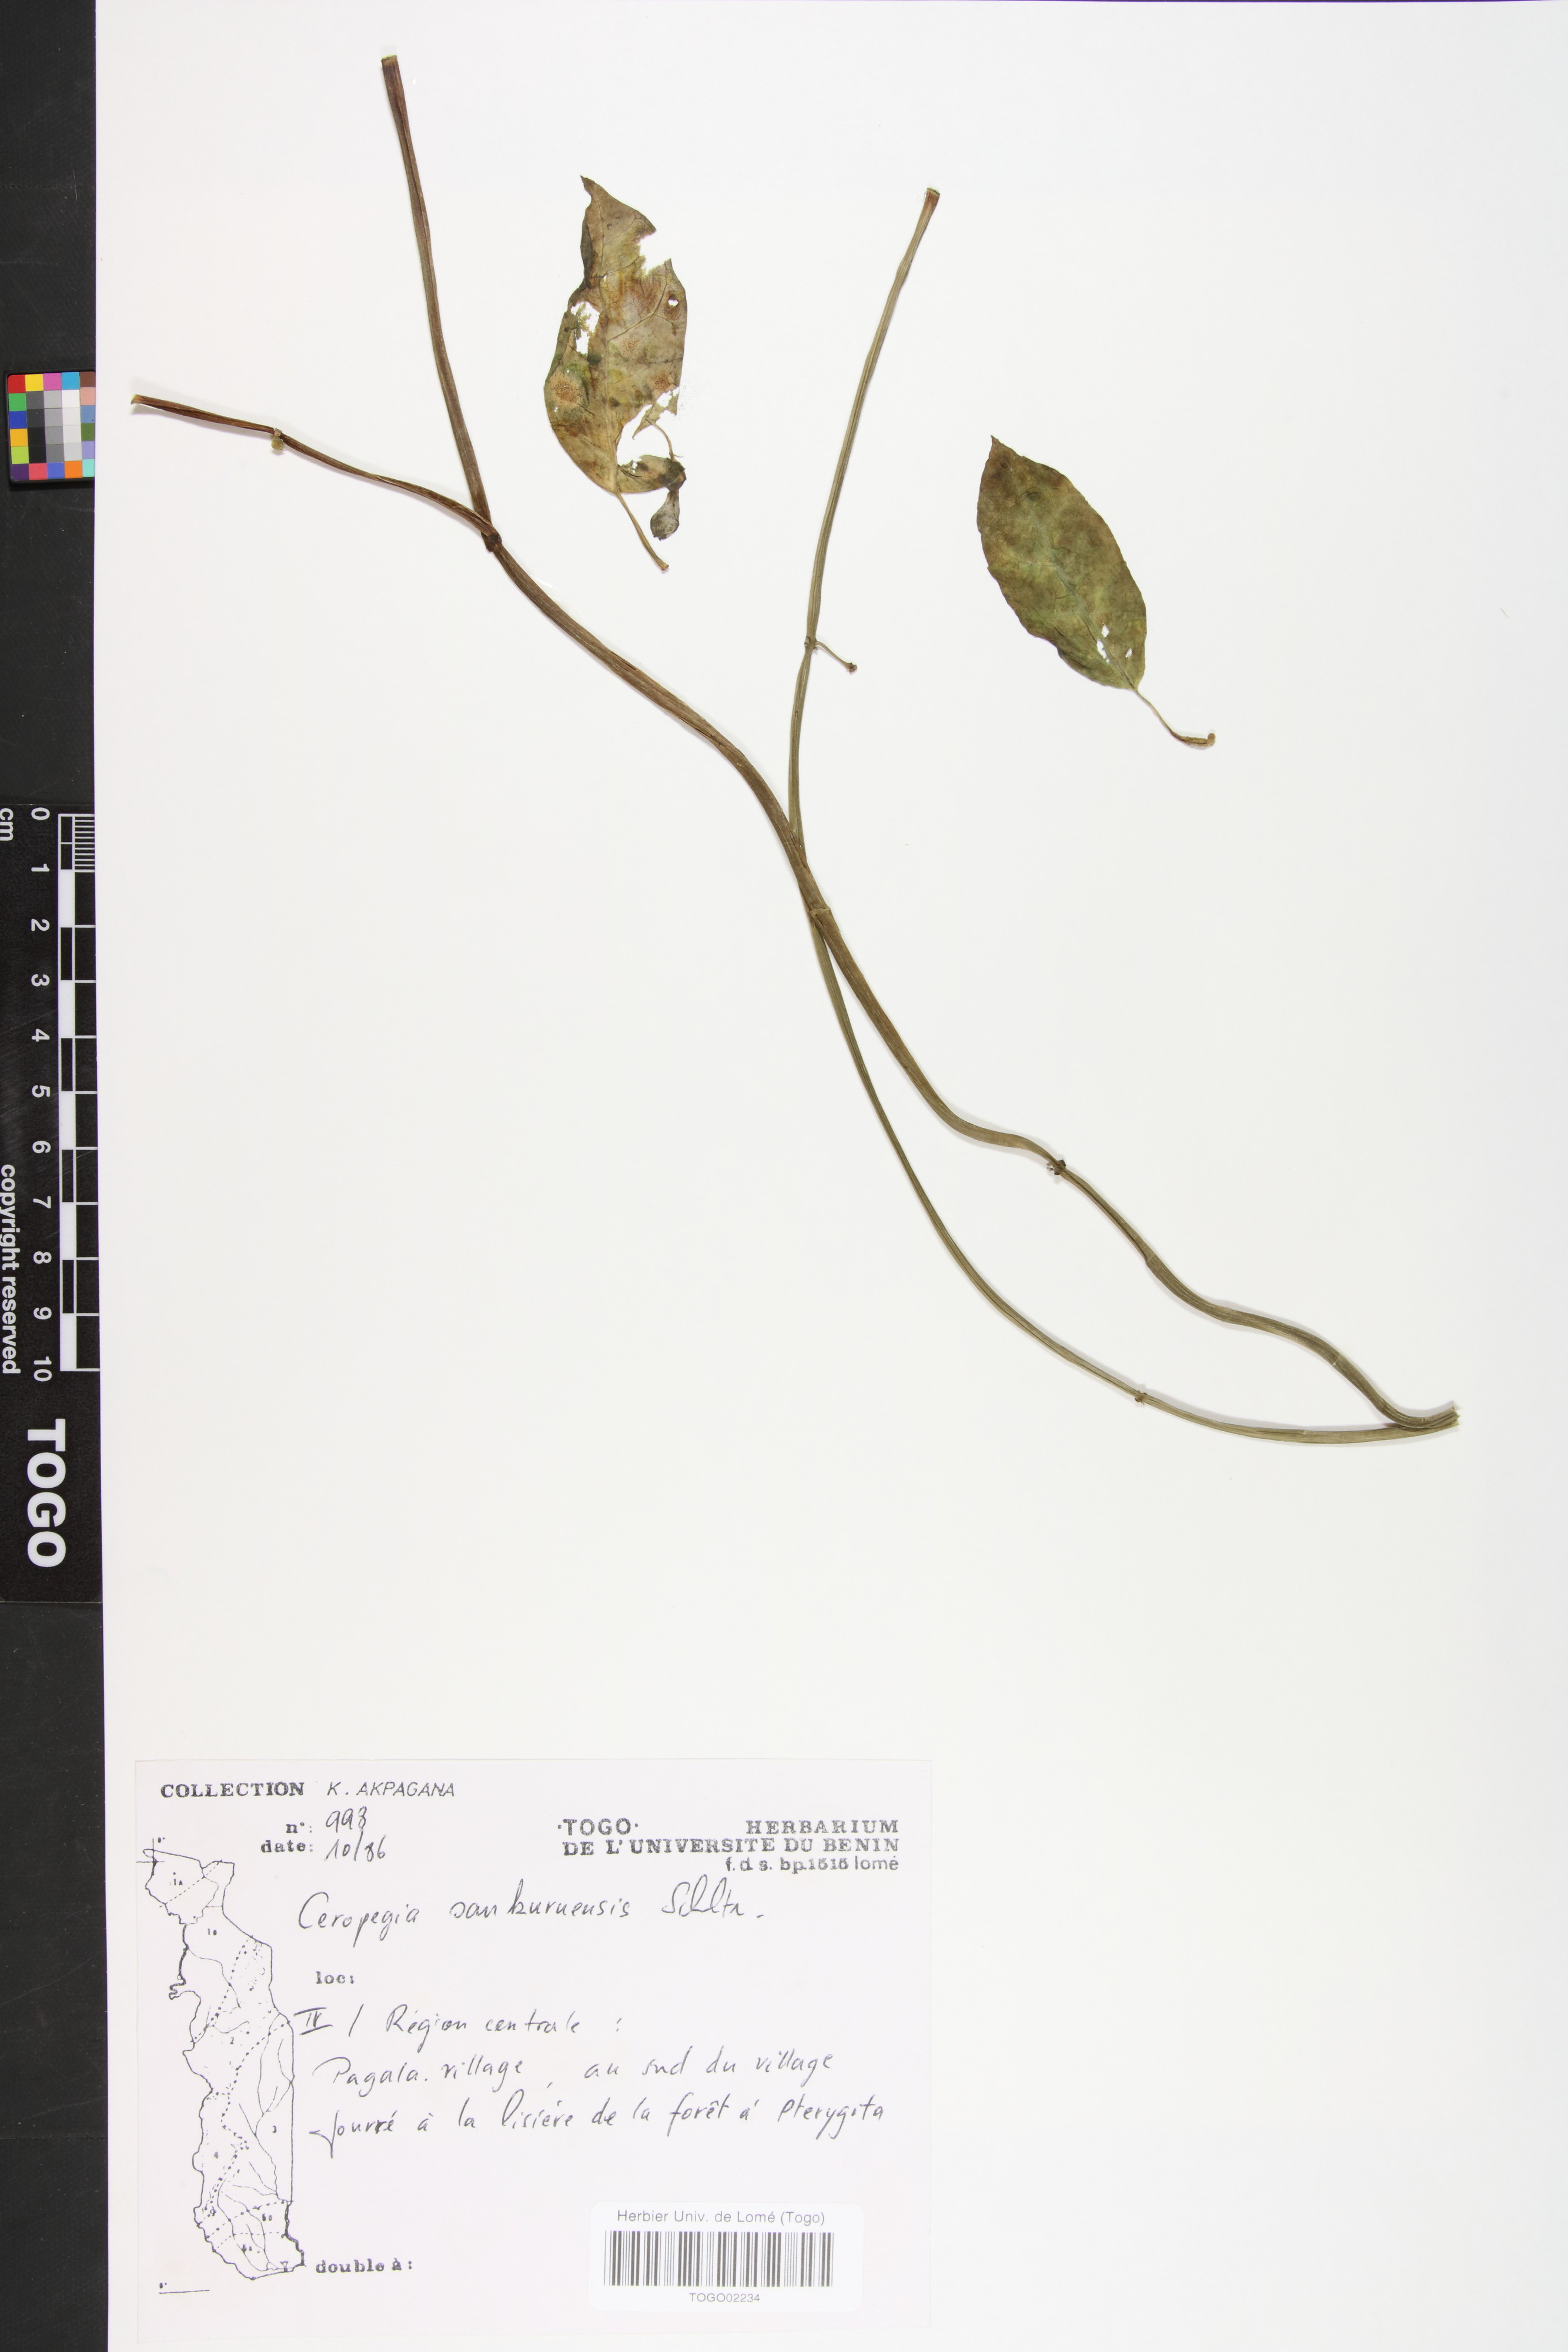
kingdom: Plantae
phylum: Tracheophyta
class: Magnoliopsida
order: Gentianales
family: Apocynaceae
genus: Ceropegia
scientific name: Ceropegia sankuruensis
